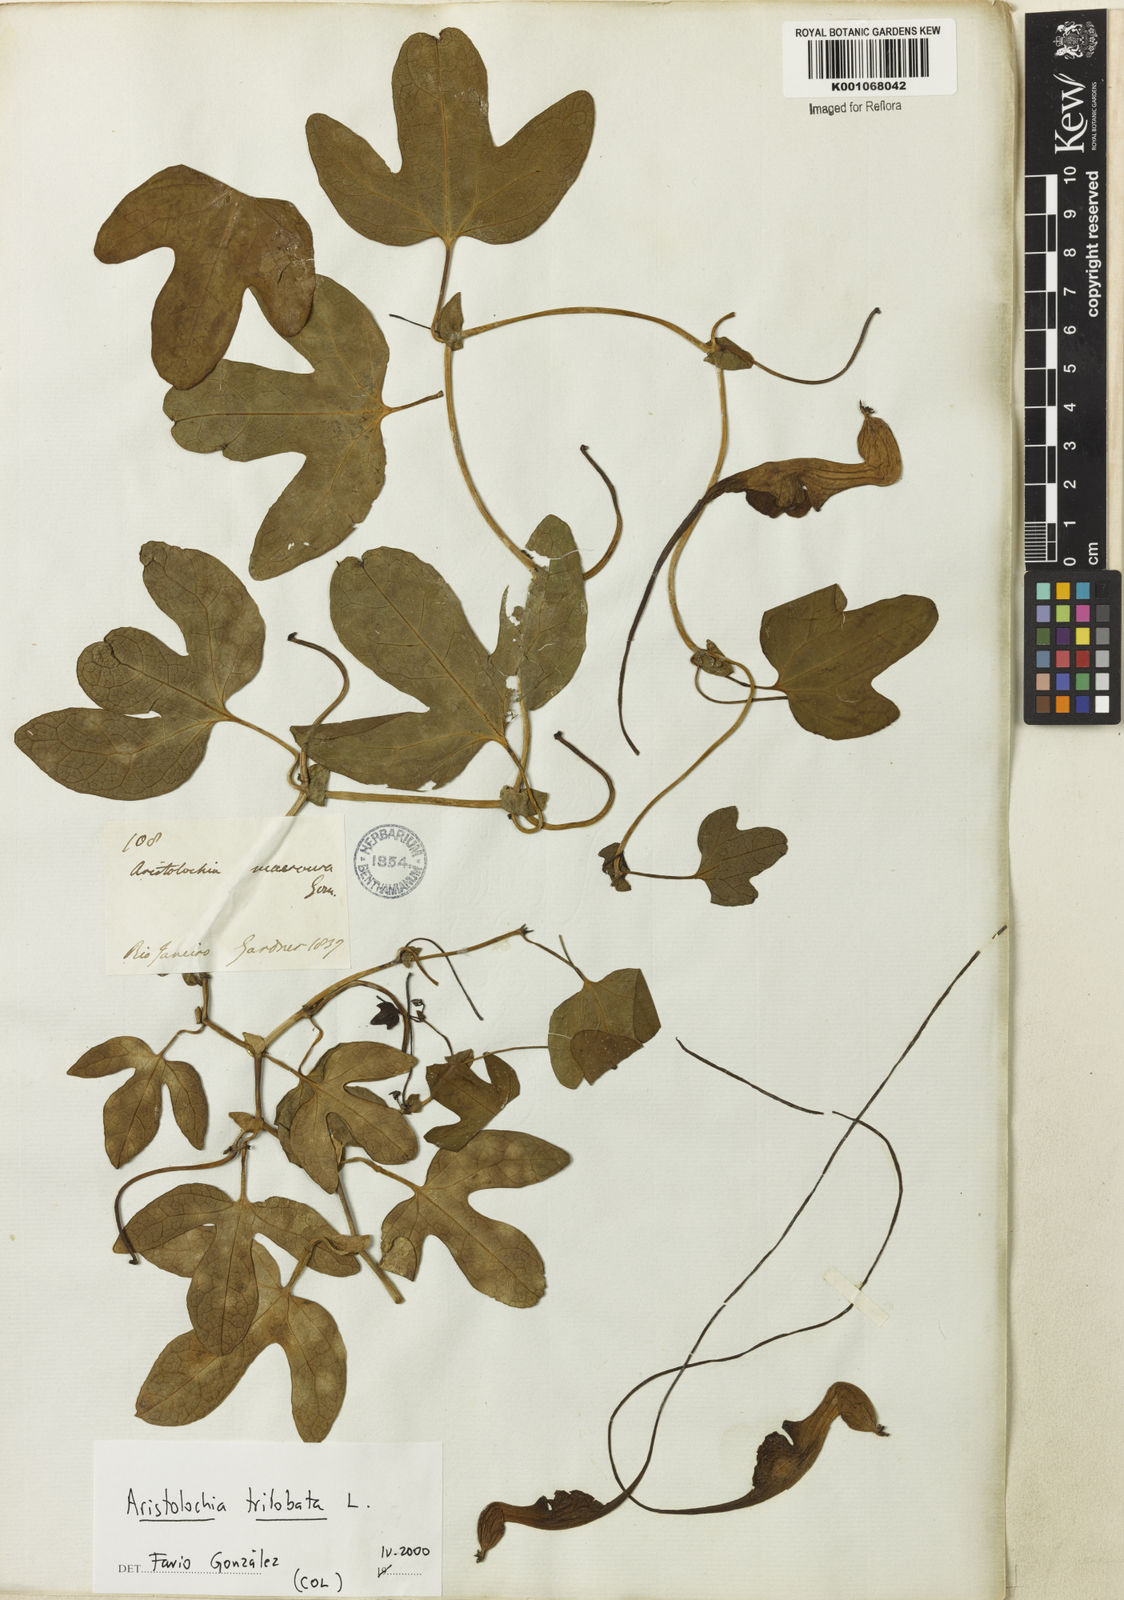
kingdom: Plantae
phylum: Tracheophyta
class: Magnoliopsida
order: Piperales
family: Aristolochiaceae
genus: Aristolochia
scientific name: Aristolochia trilobata
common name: Dutchman's pipe
